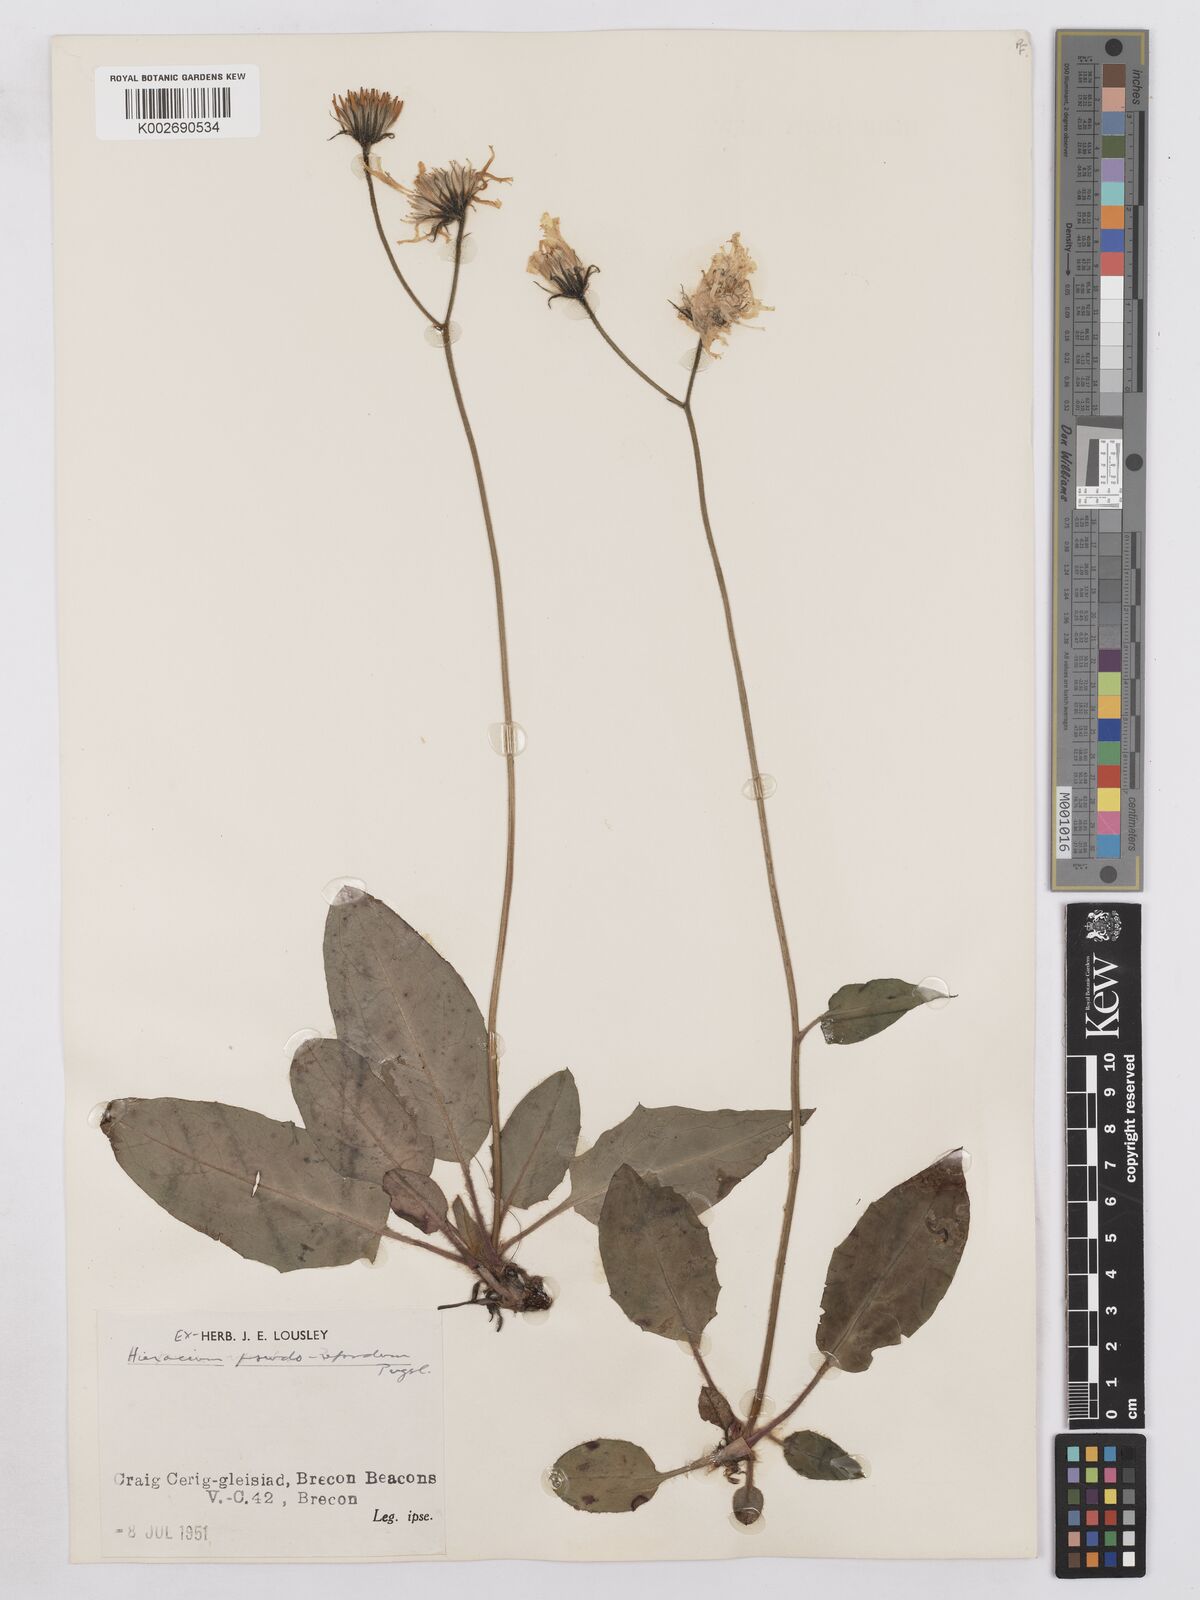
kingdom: Plantae
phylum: Tracheophyta
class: Magnoliopsida
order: Asterales
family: Asteraceae
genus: Hieracium
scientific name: Hieracium repandulare
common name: Repand-leaved hawkweed
